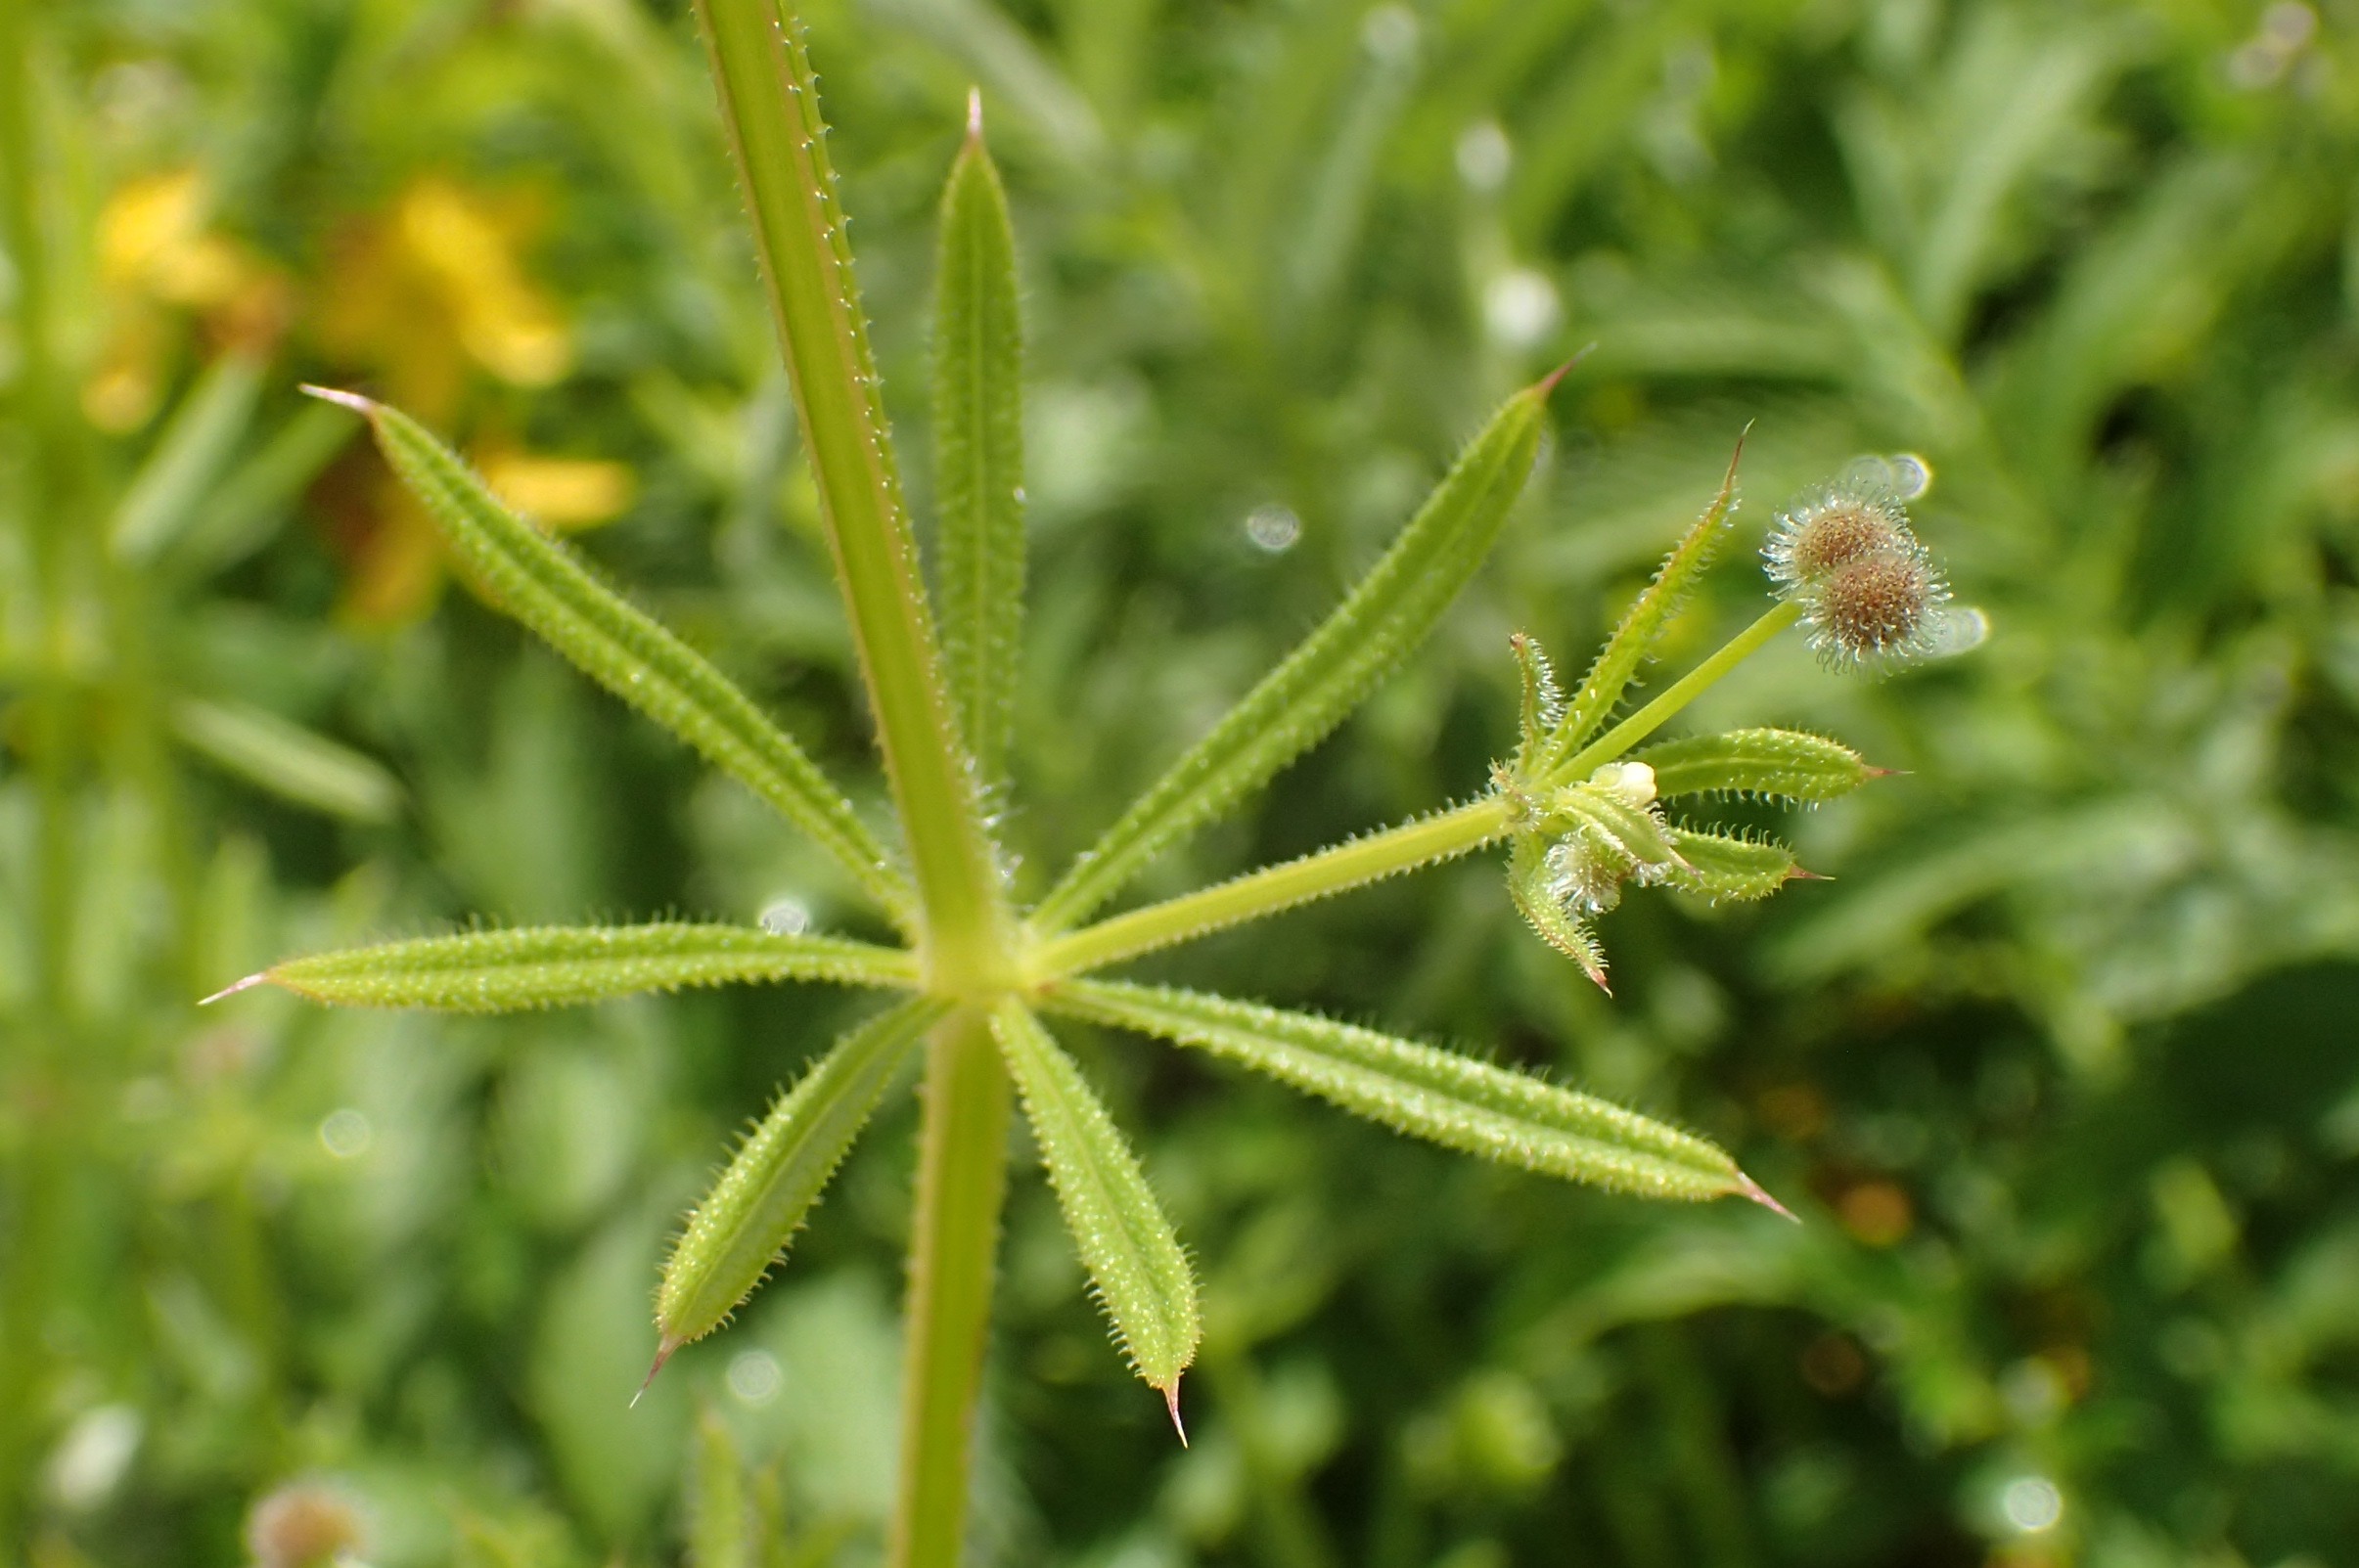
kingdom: Plantae
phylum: Tracheophyta
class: Magnoliopsida
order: Gentianales
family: Rubiaceae
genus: Galium
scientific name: Galium aparine
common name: Burre-snerre
